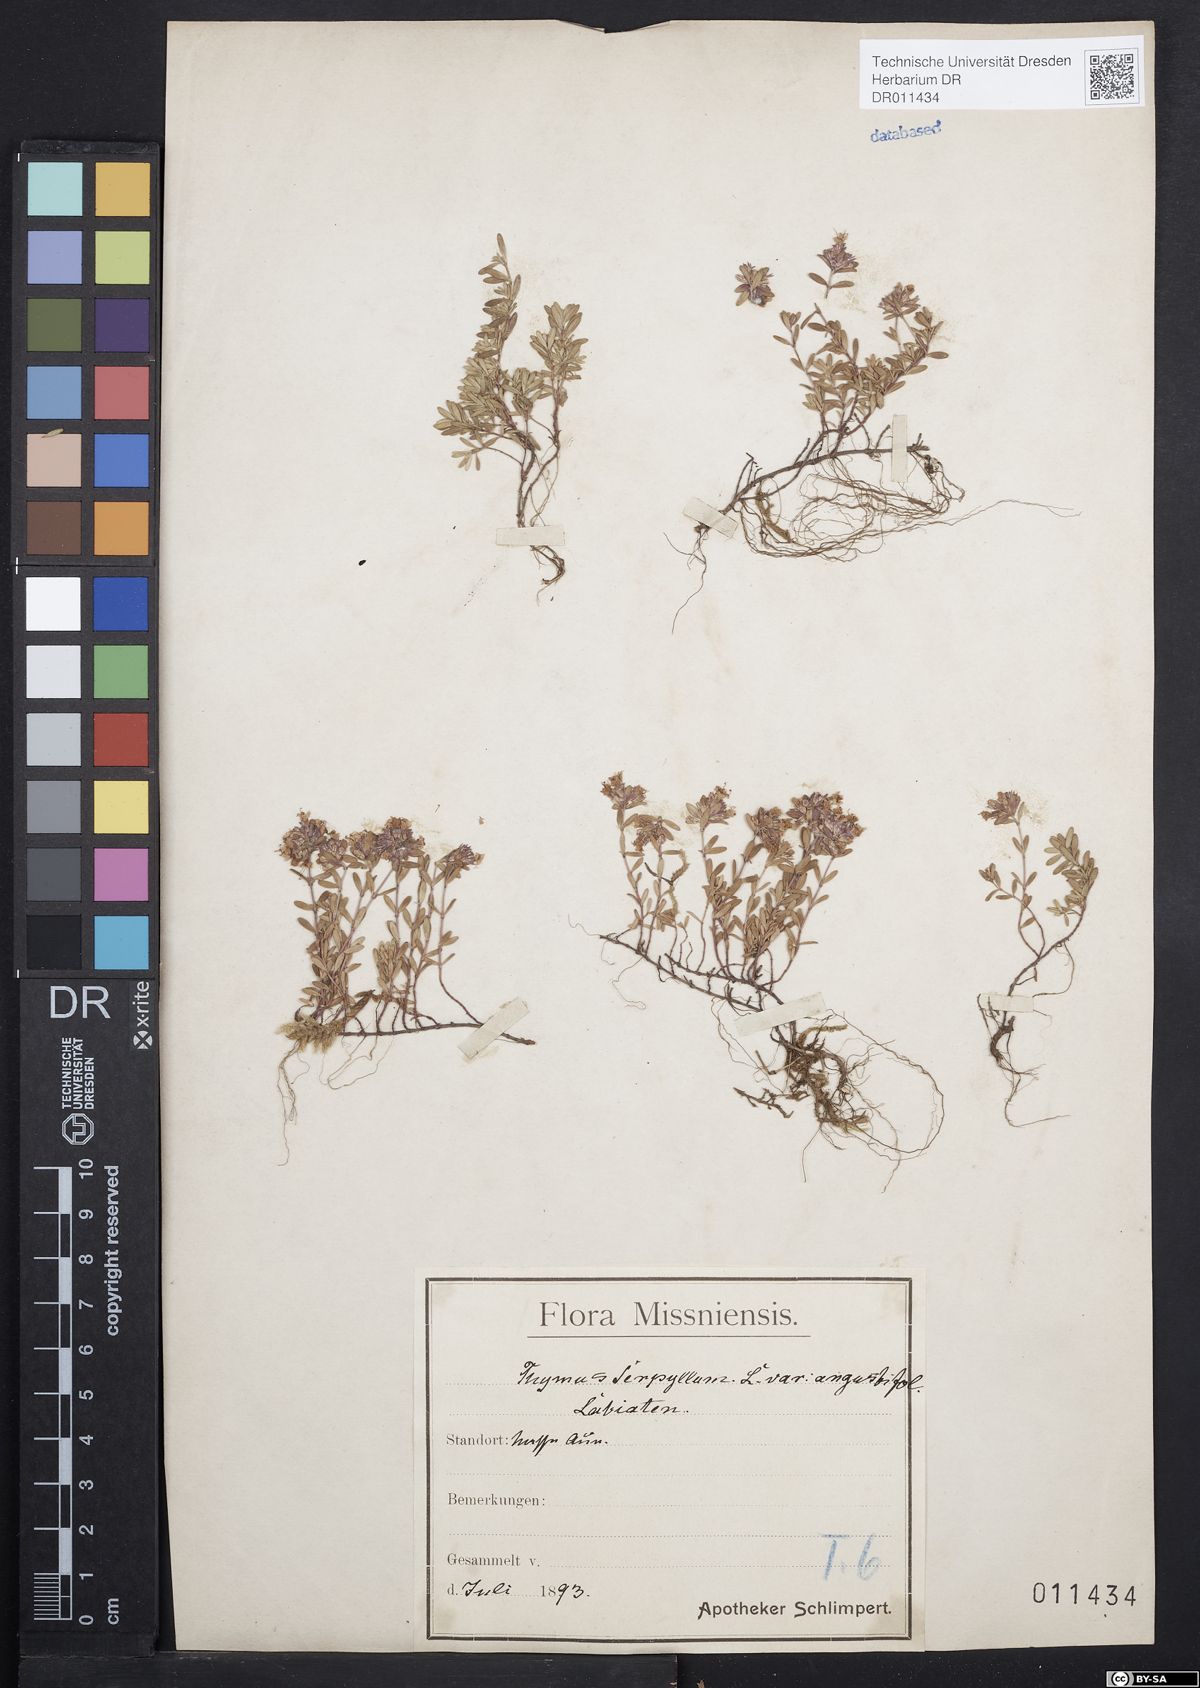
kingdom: Plantae
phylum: Tracheophyta
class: Magnoliopsida
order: Lamiales
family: Lamiaceae
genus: Thymus
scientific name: Thymus serpyllum
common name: Breckland thyme
